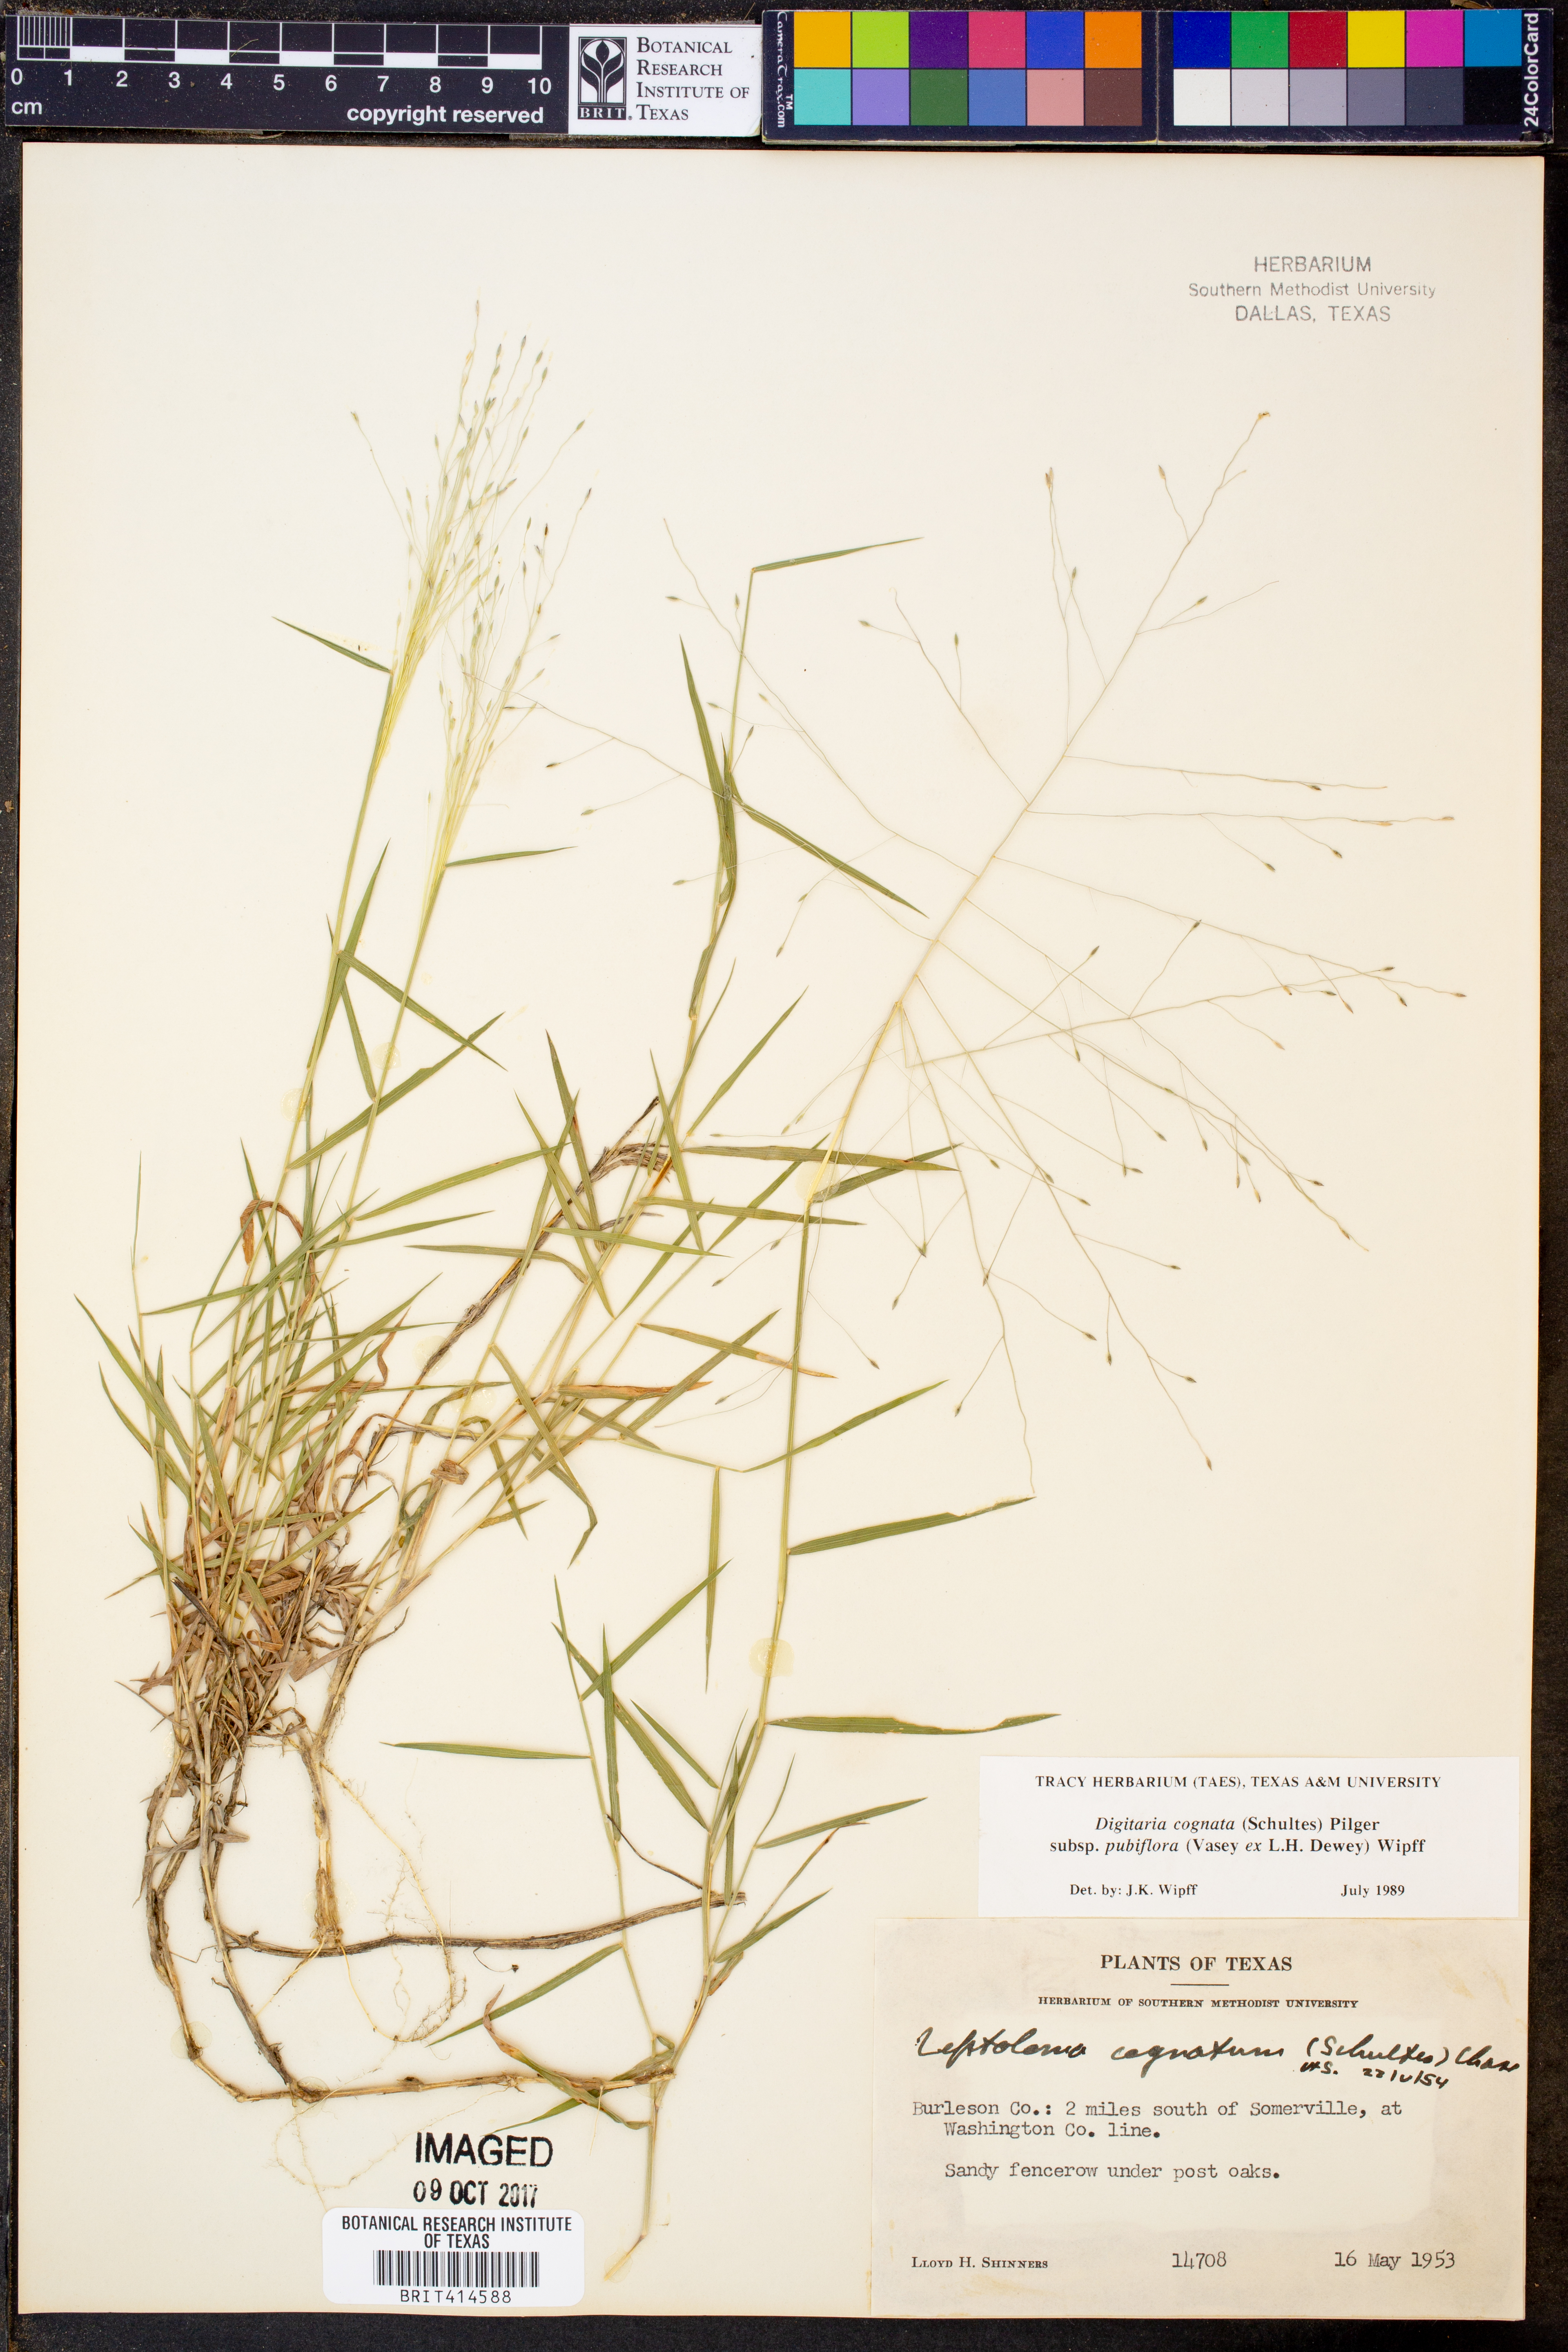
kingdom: Plantae
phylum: Tracheophyta
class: Liliopsida
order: Poales
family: Poaceae
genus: Digitaria
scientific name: Digitaria cognata
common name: Fall witchgrass
